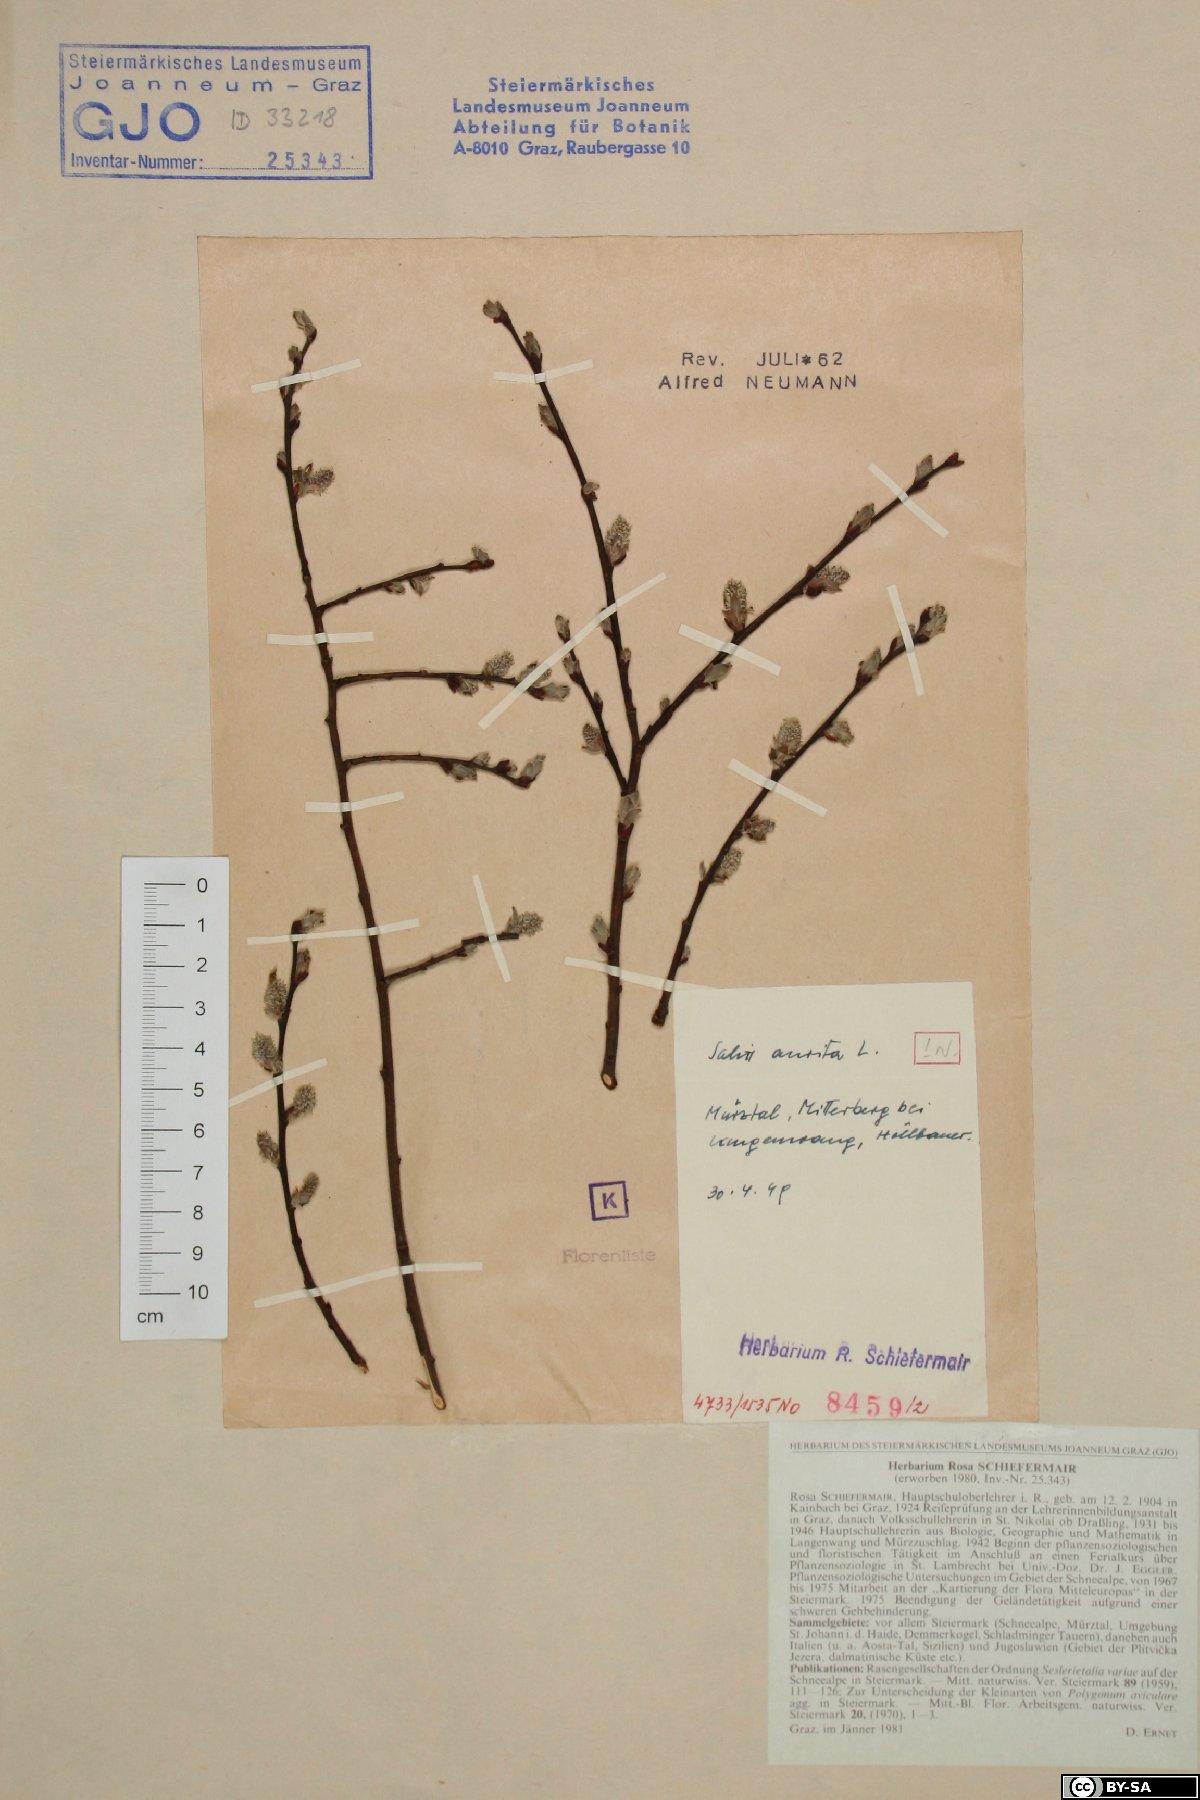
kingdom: Plantae
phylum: Tracheophyta
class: Magnoliopsida
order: Malpighiales
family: Salicaceae
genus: Salix
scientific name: Salix aurita
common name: Eared willow
